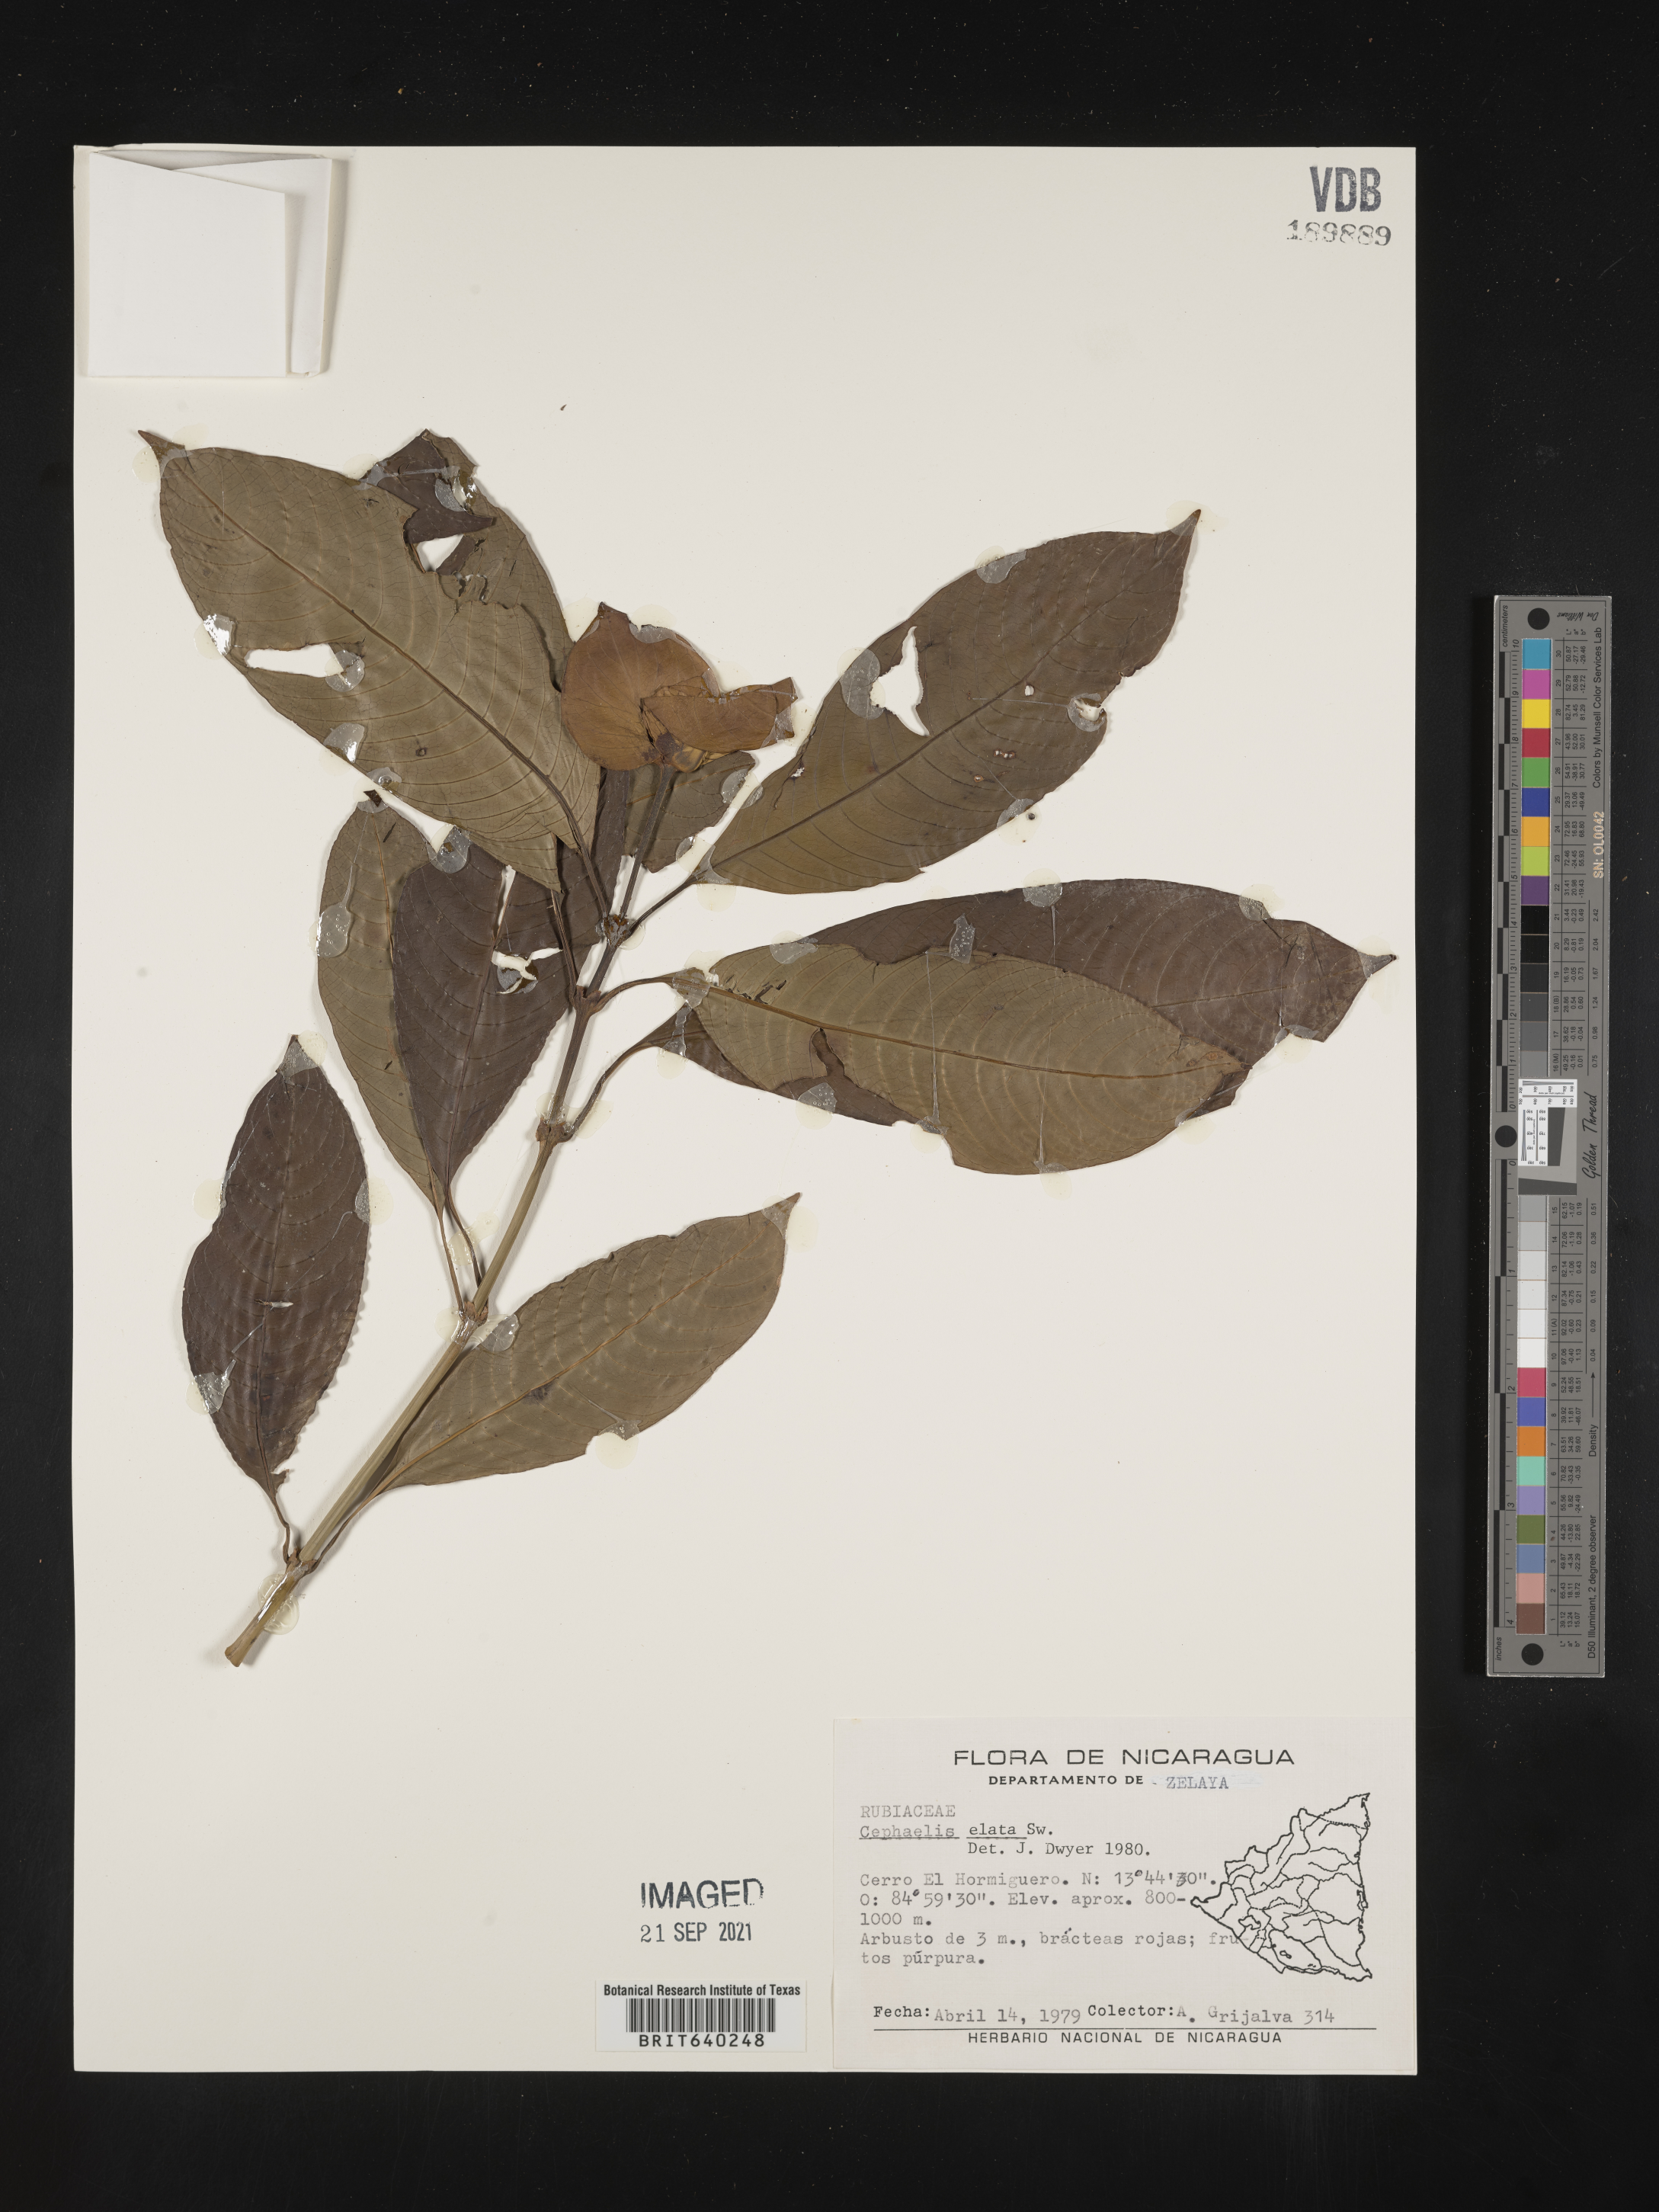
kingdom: Plantae
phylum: Tracheophyta
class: Magnoliopsida
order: Gentianales
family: Rubiaceae
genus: Psychotria
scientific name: Psychotria
